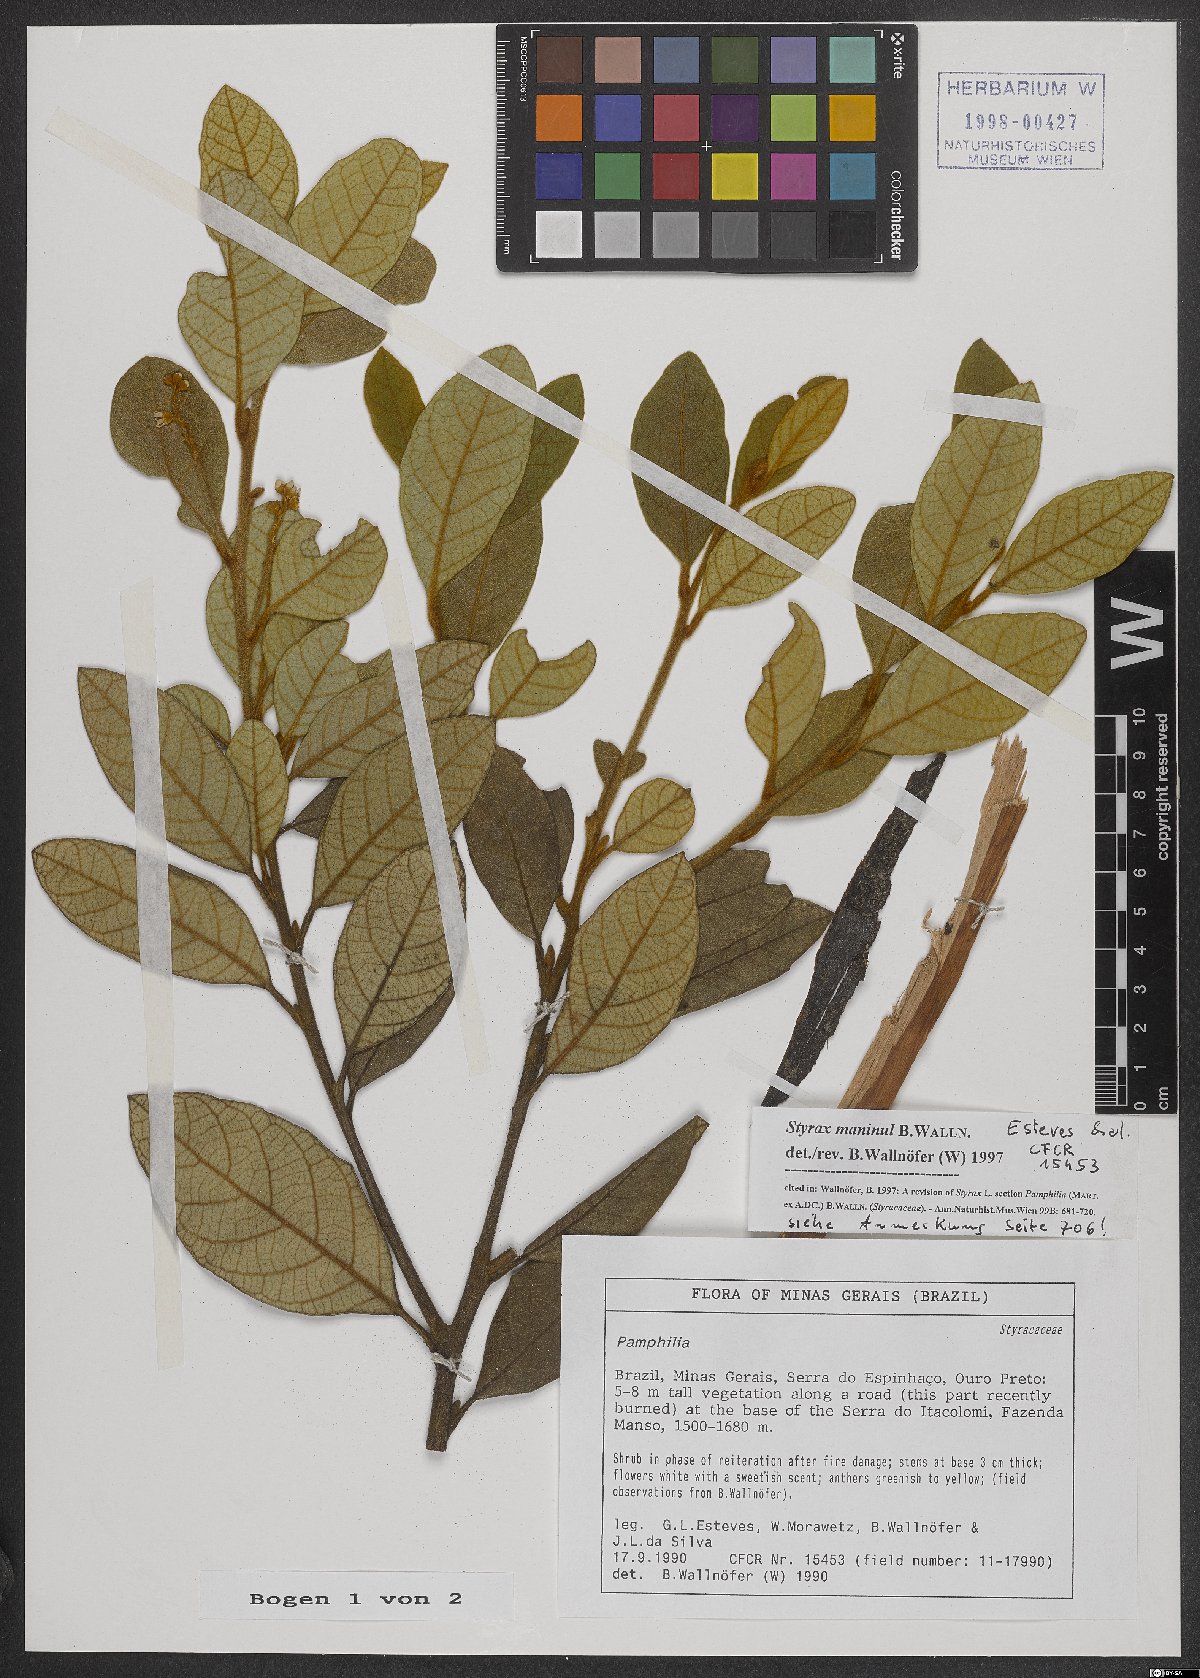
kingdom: Plantae
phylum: Tracheophyta
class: Magnoliopsida
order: Ericales
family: Styracaceae
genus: Styrax
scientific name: Styrax maninul
